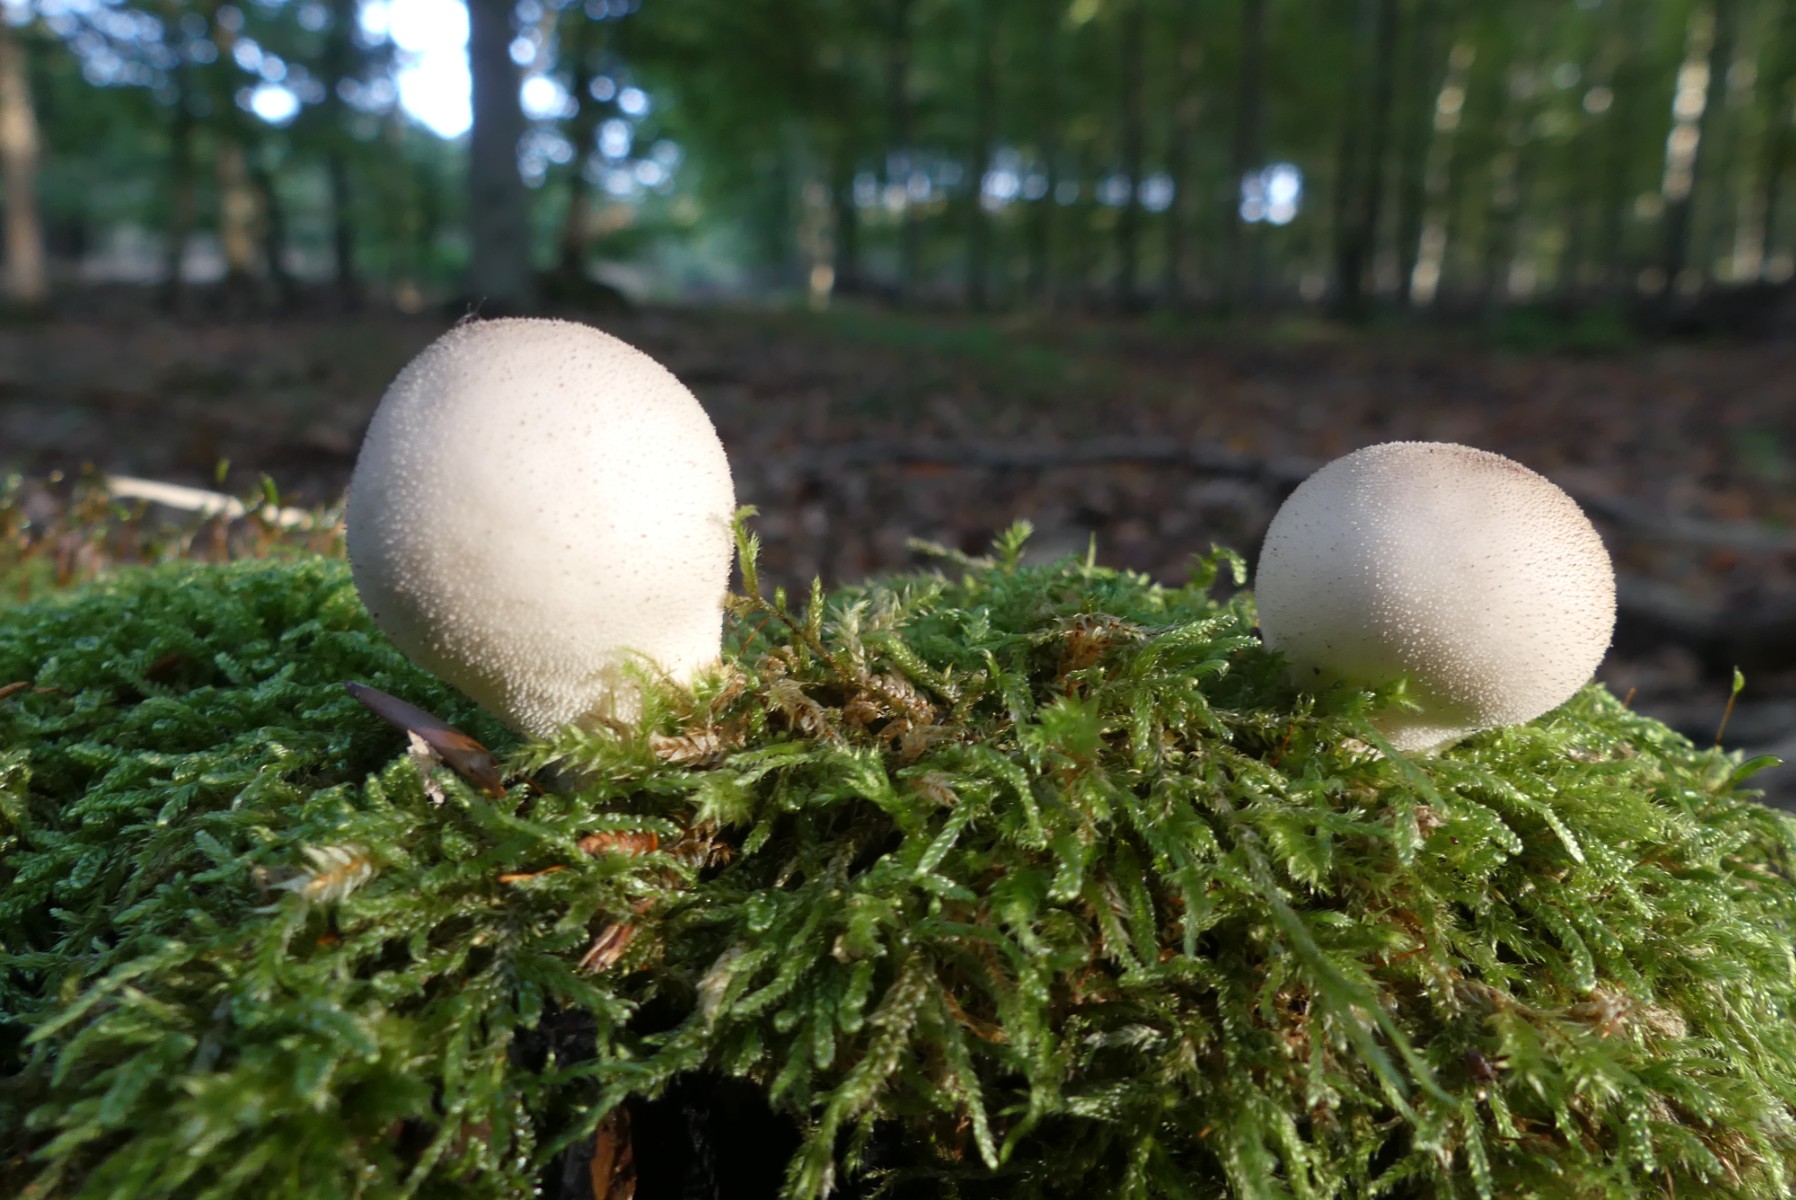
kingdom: Fungi
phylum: Basidiomycota
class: Agaricomycetes
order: Agaricales
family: Agaricaceae
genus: Lycoperdon
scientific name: Lycoperdon
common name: støvbold
